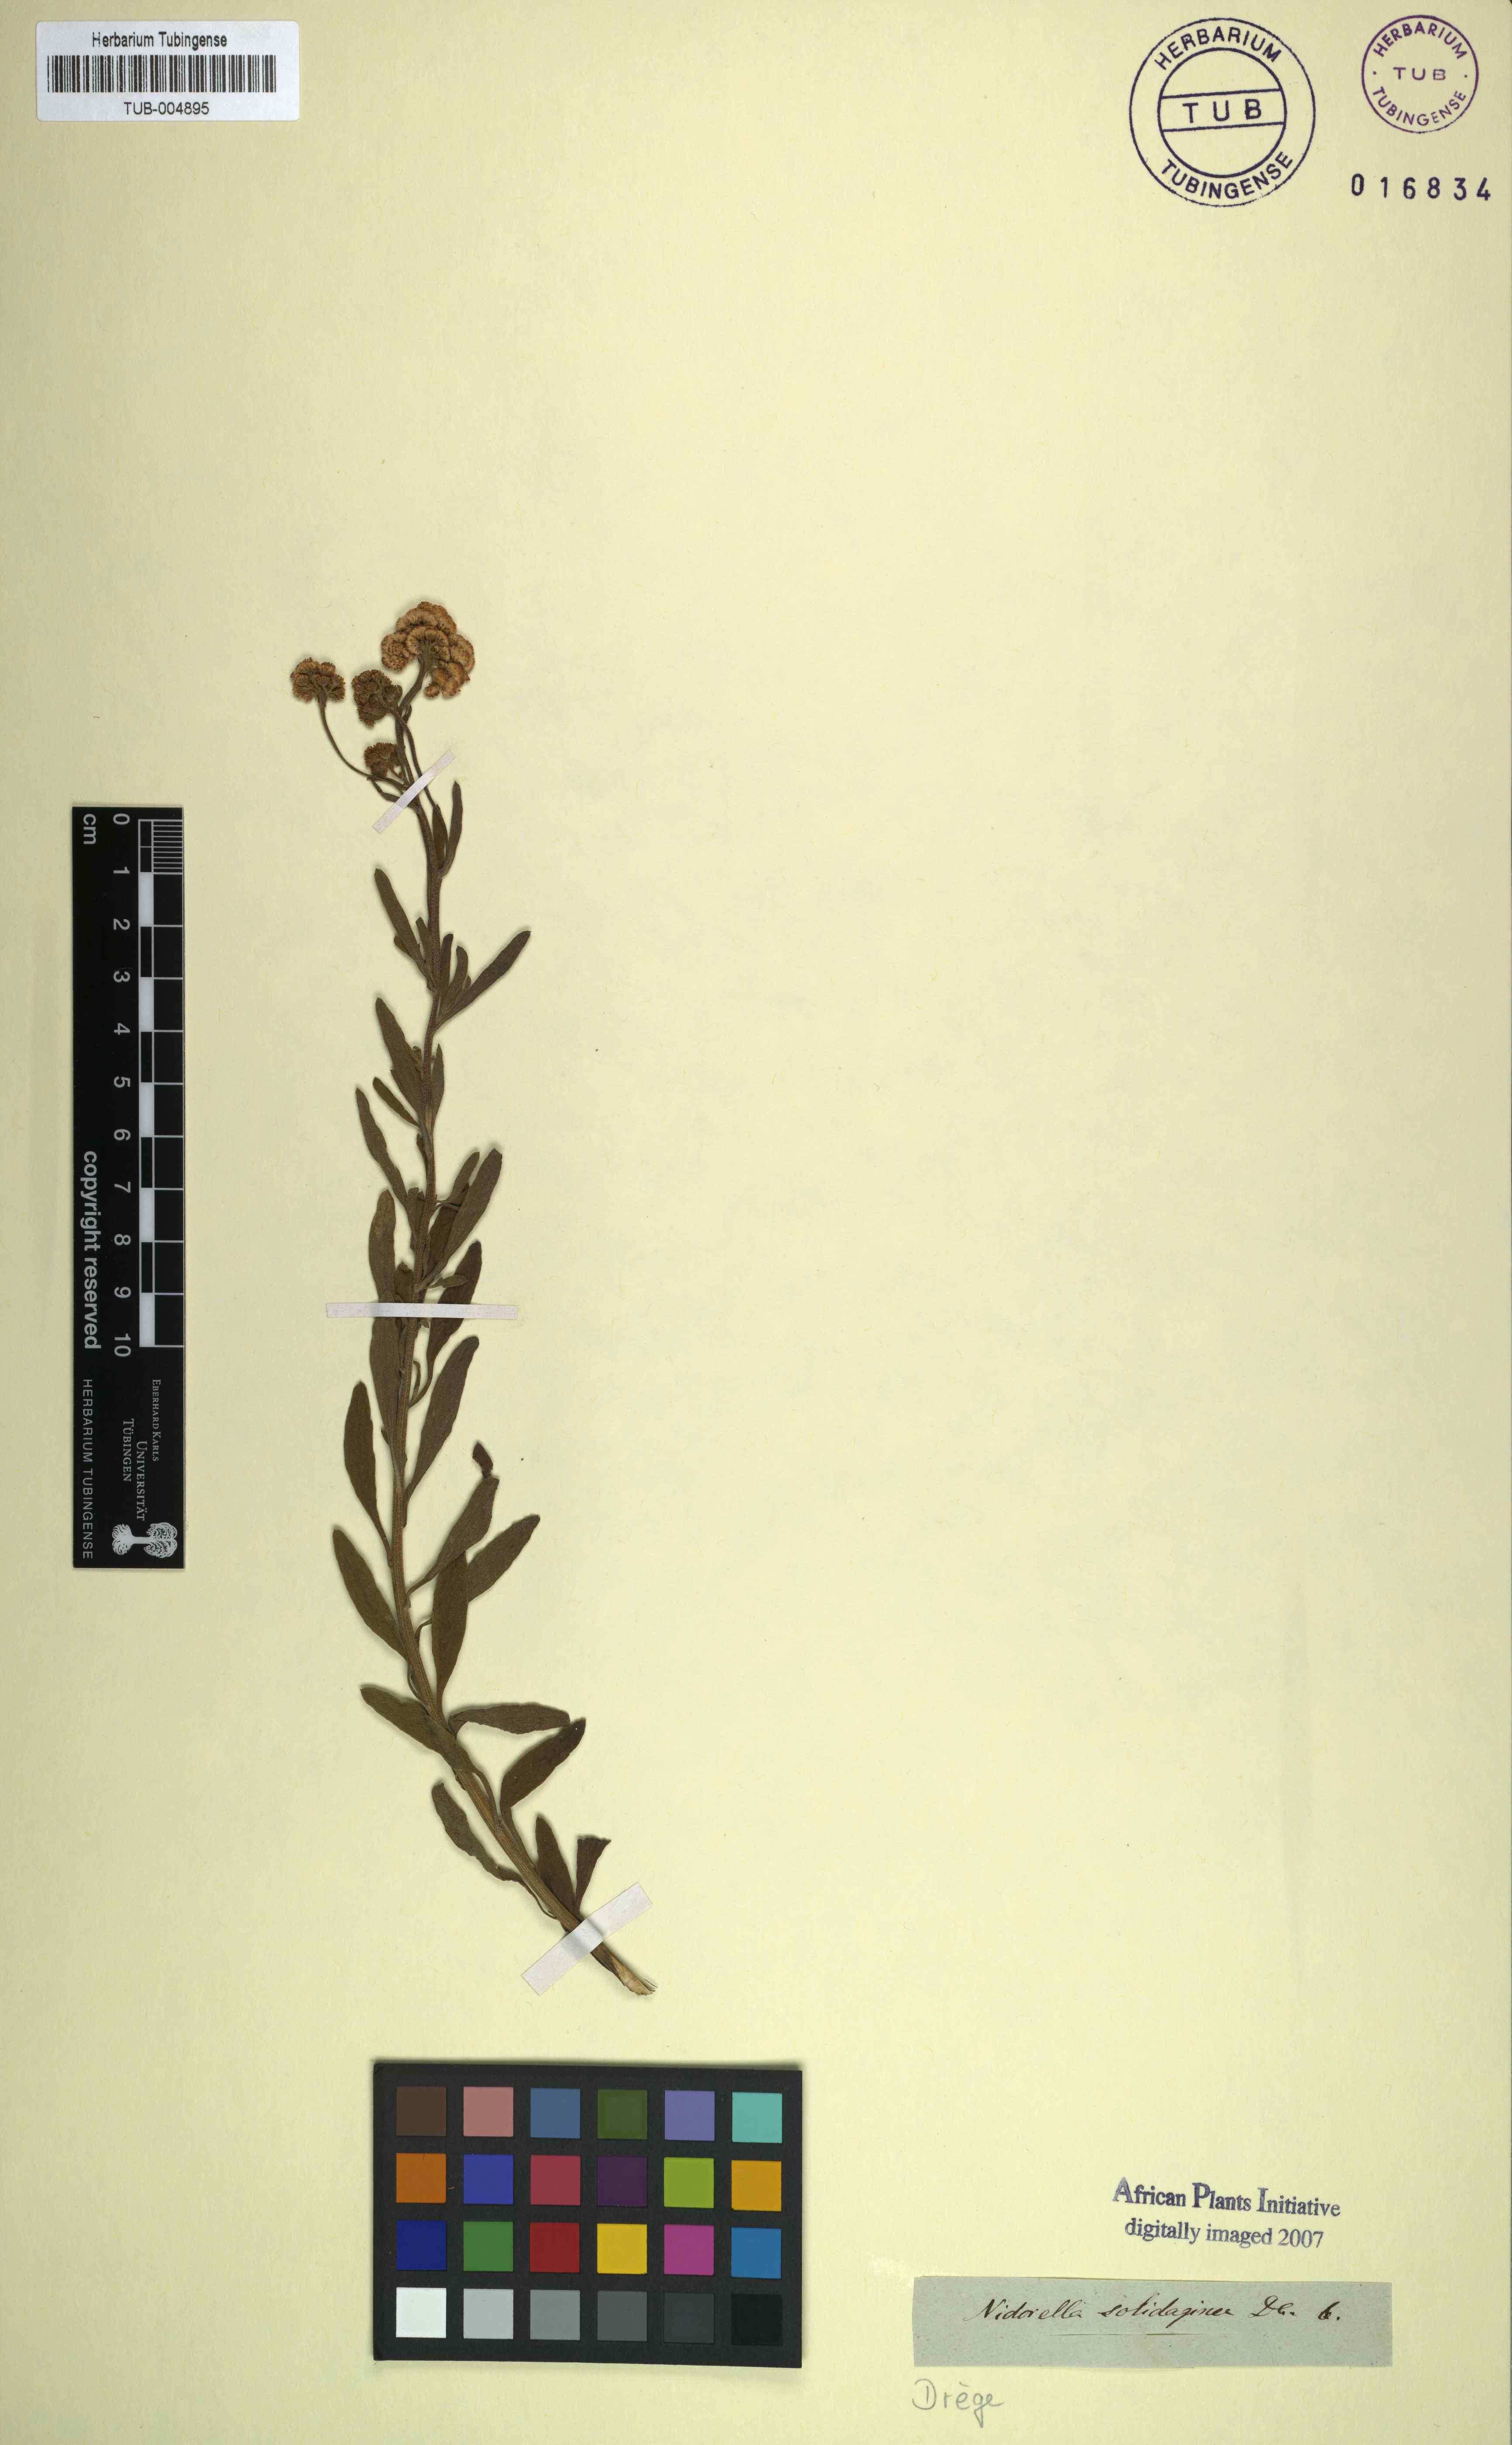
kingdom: Plantae
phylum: Tracheophyta
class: Magnoliopsida
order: Asterales
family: Asteraceae
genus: Nidorella
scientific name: Nidorella resedifolia
